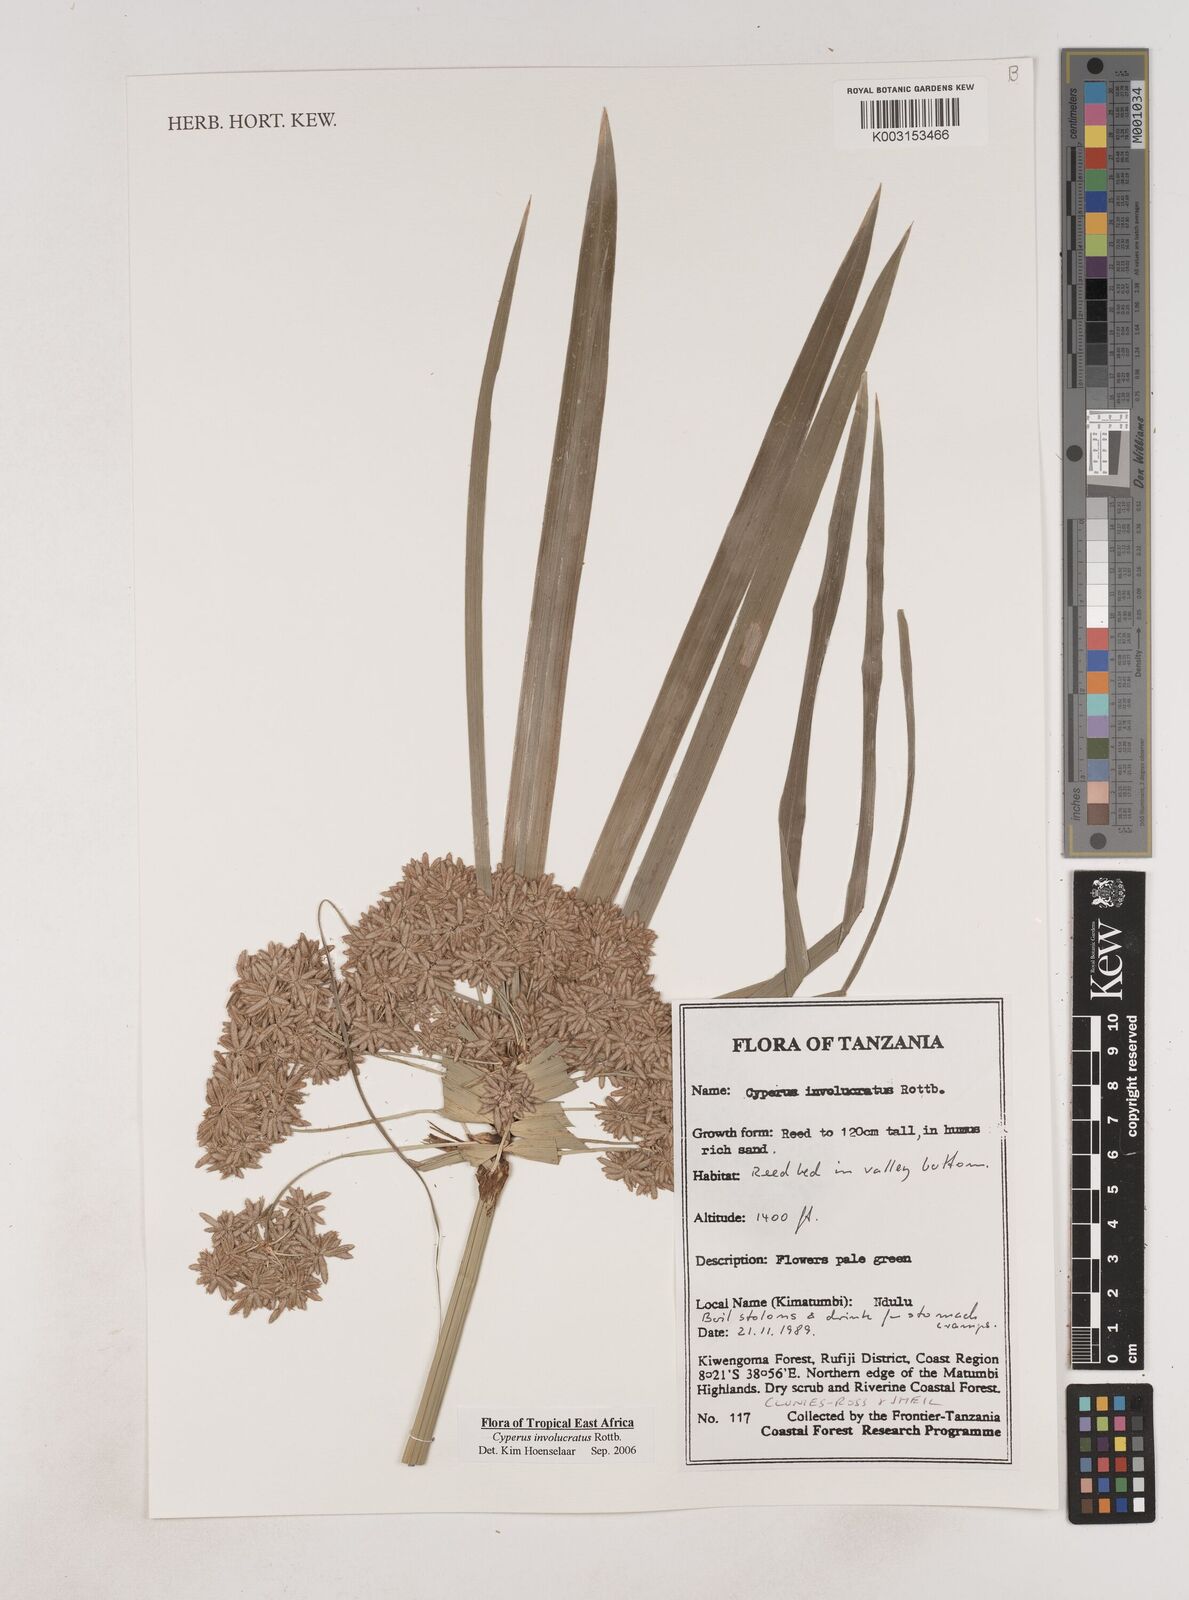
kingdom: Plantae
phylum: Tracheophyta
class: Liliopsida
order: Poales
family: Cyperaceae
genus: Cyperus
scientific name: Cyperus alternifolius
